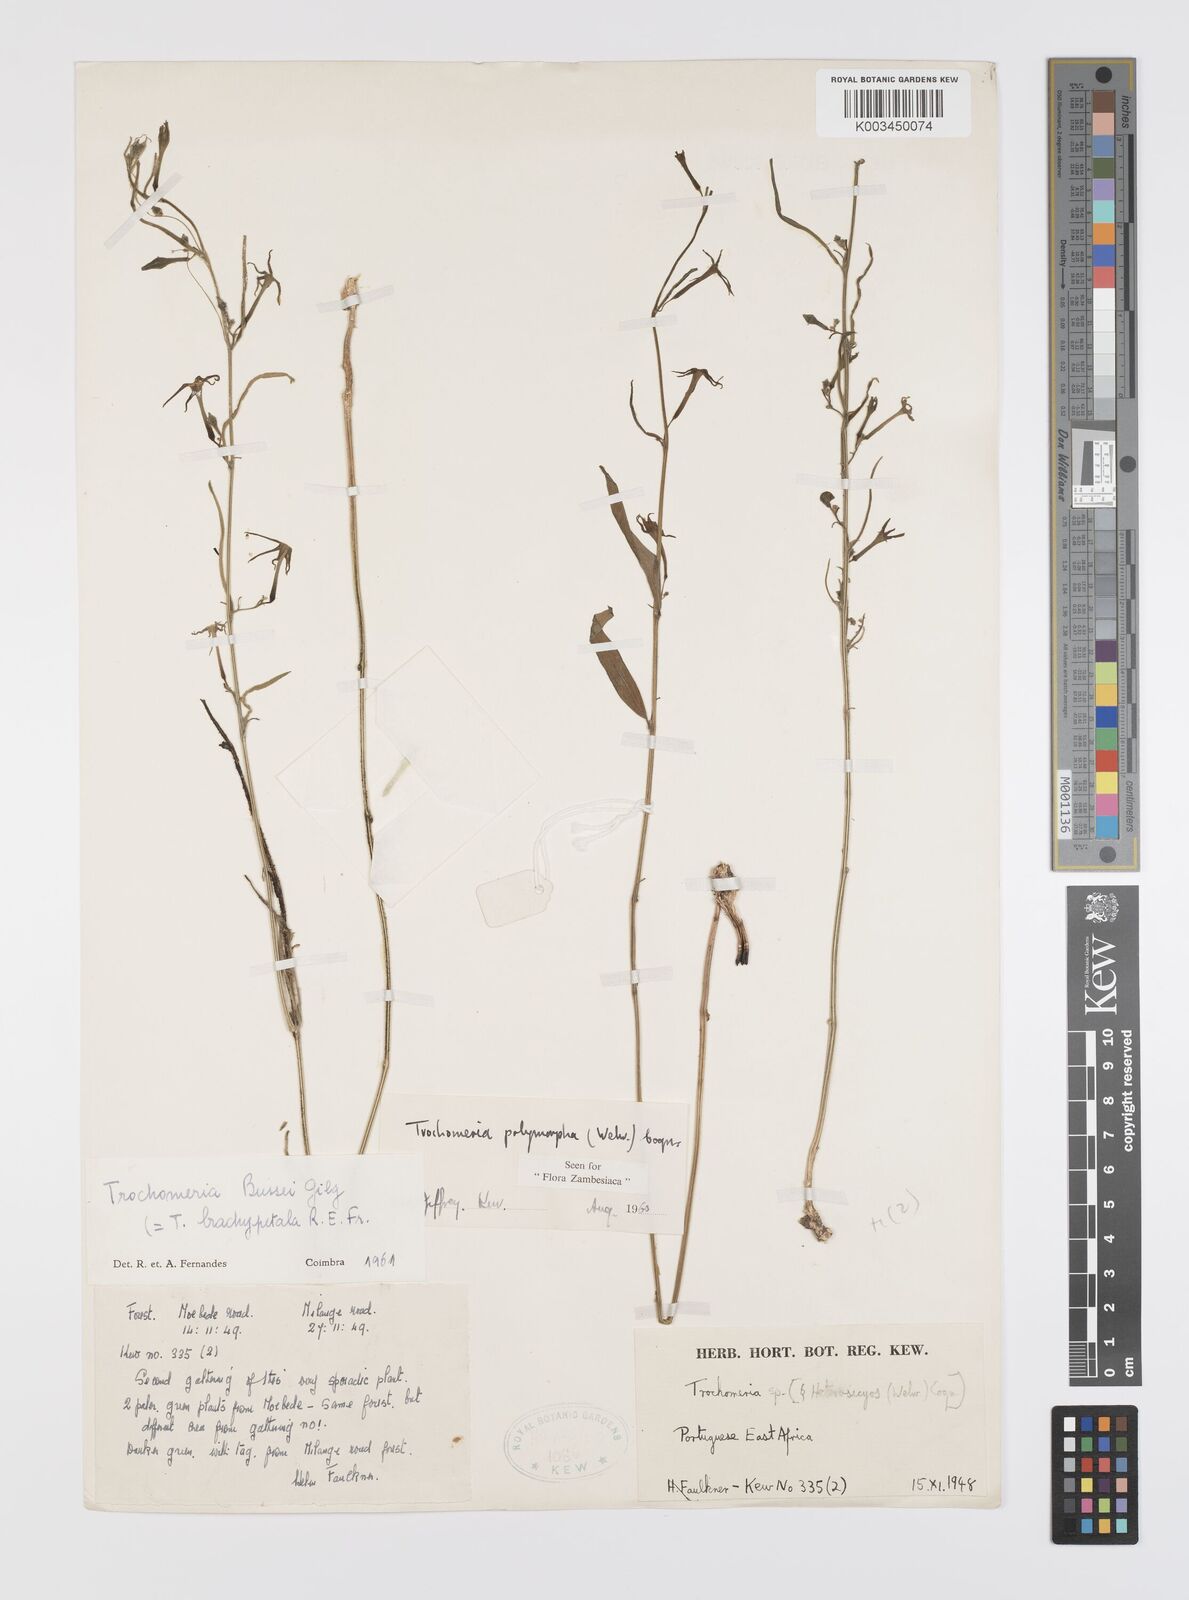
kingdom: Plantae
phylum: Tracheophyta
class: Magnoliopsida
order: Cucurbitales
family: Cucurbitaceae
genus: Trochomeria
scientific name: Trochomeria polymorpha
